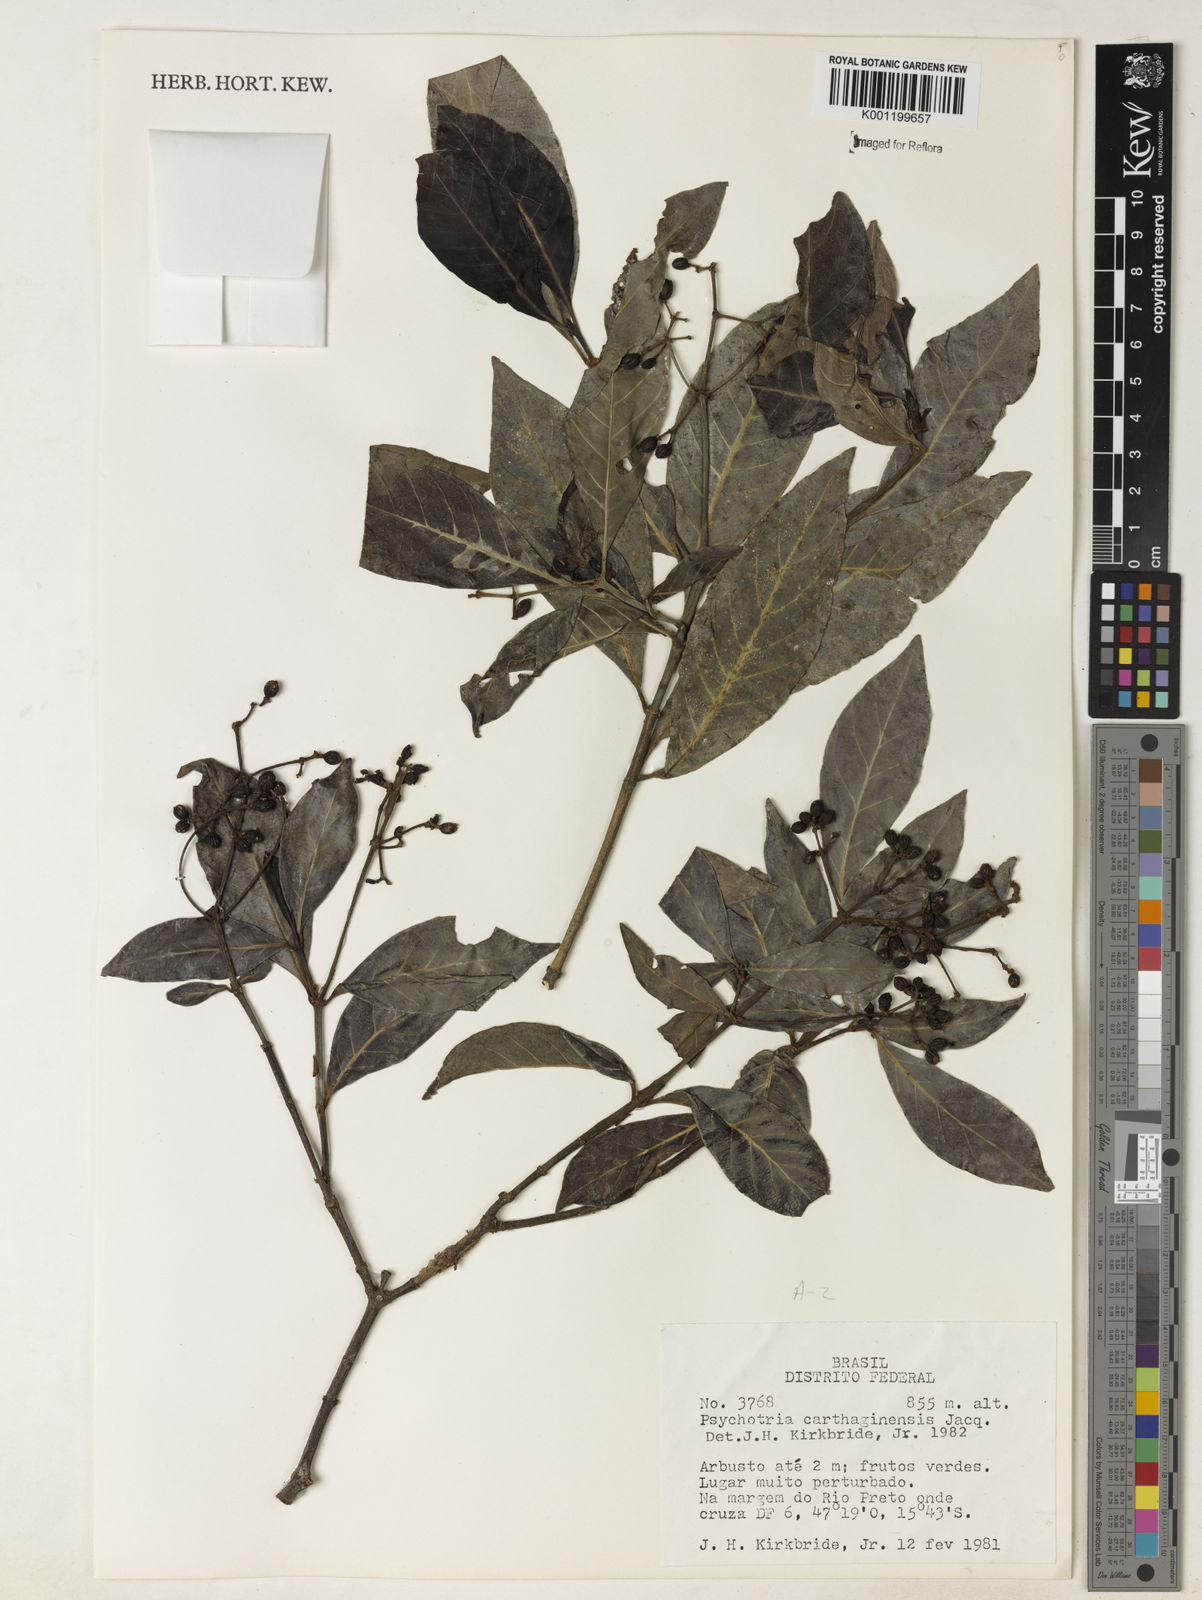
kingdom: Plantae
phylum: Tracheophyta
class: Magnoliopsida
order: Gentianales
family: Rubiaceae
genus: Psychotria
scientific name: Psychotria carthagenensis
